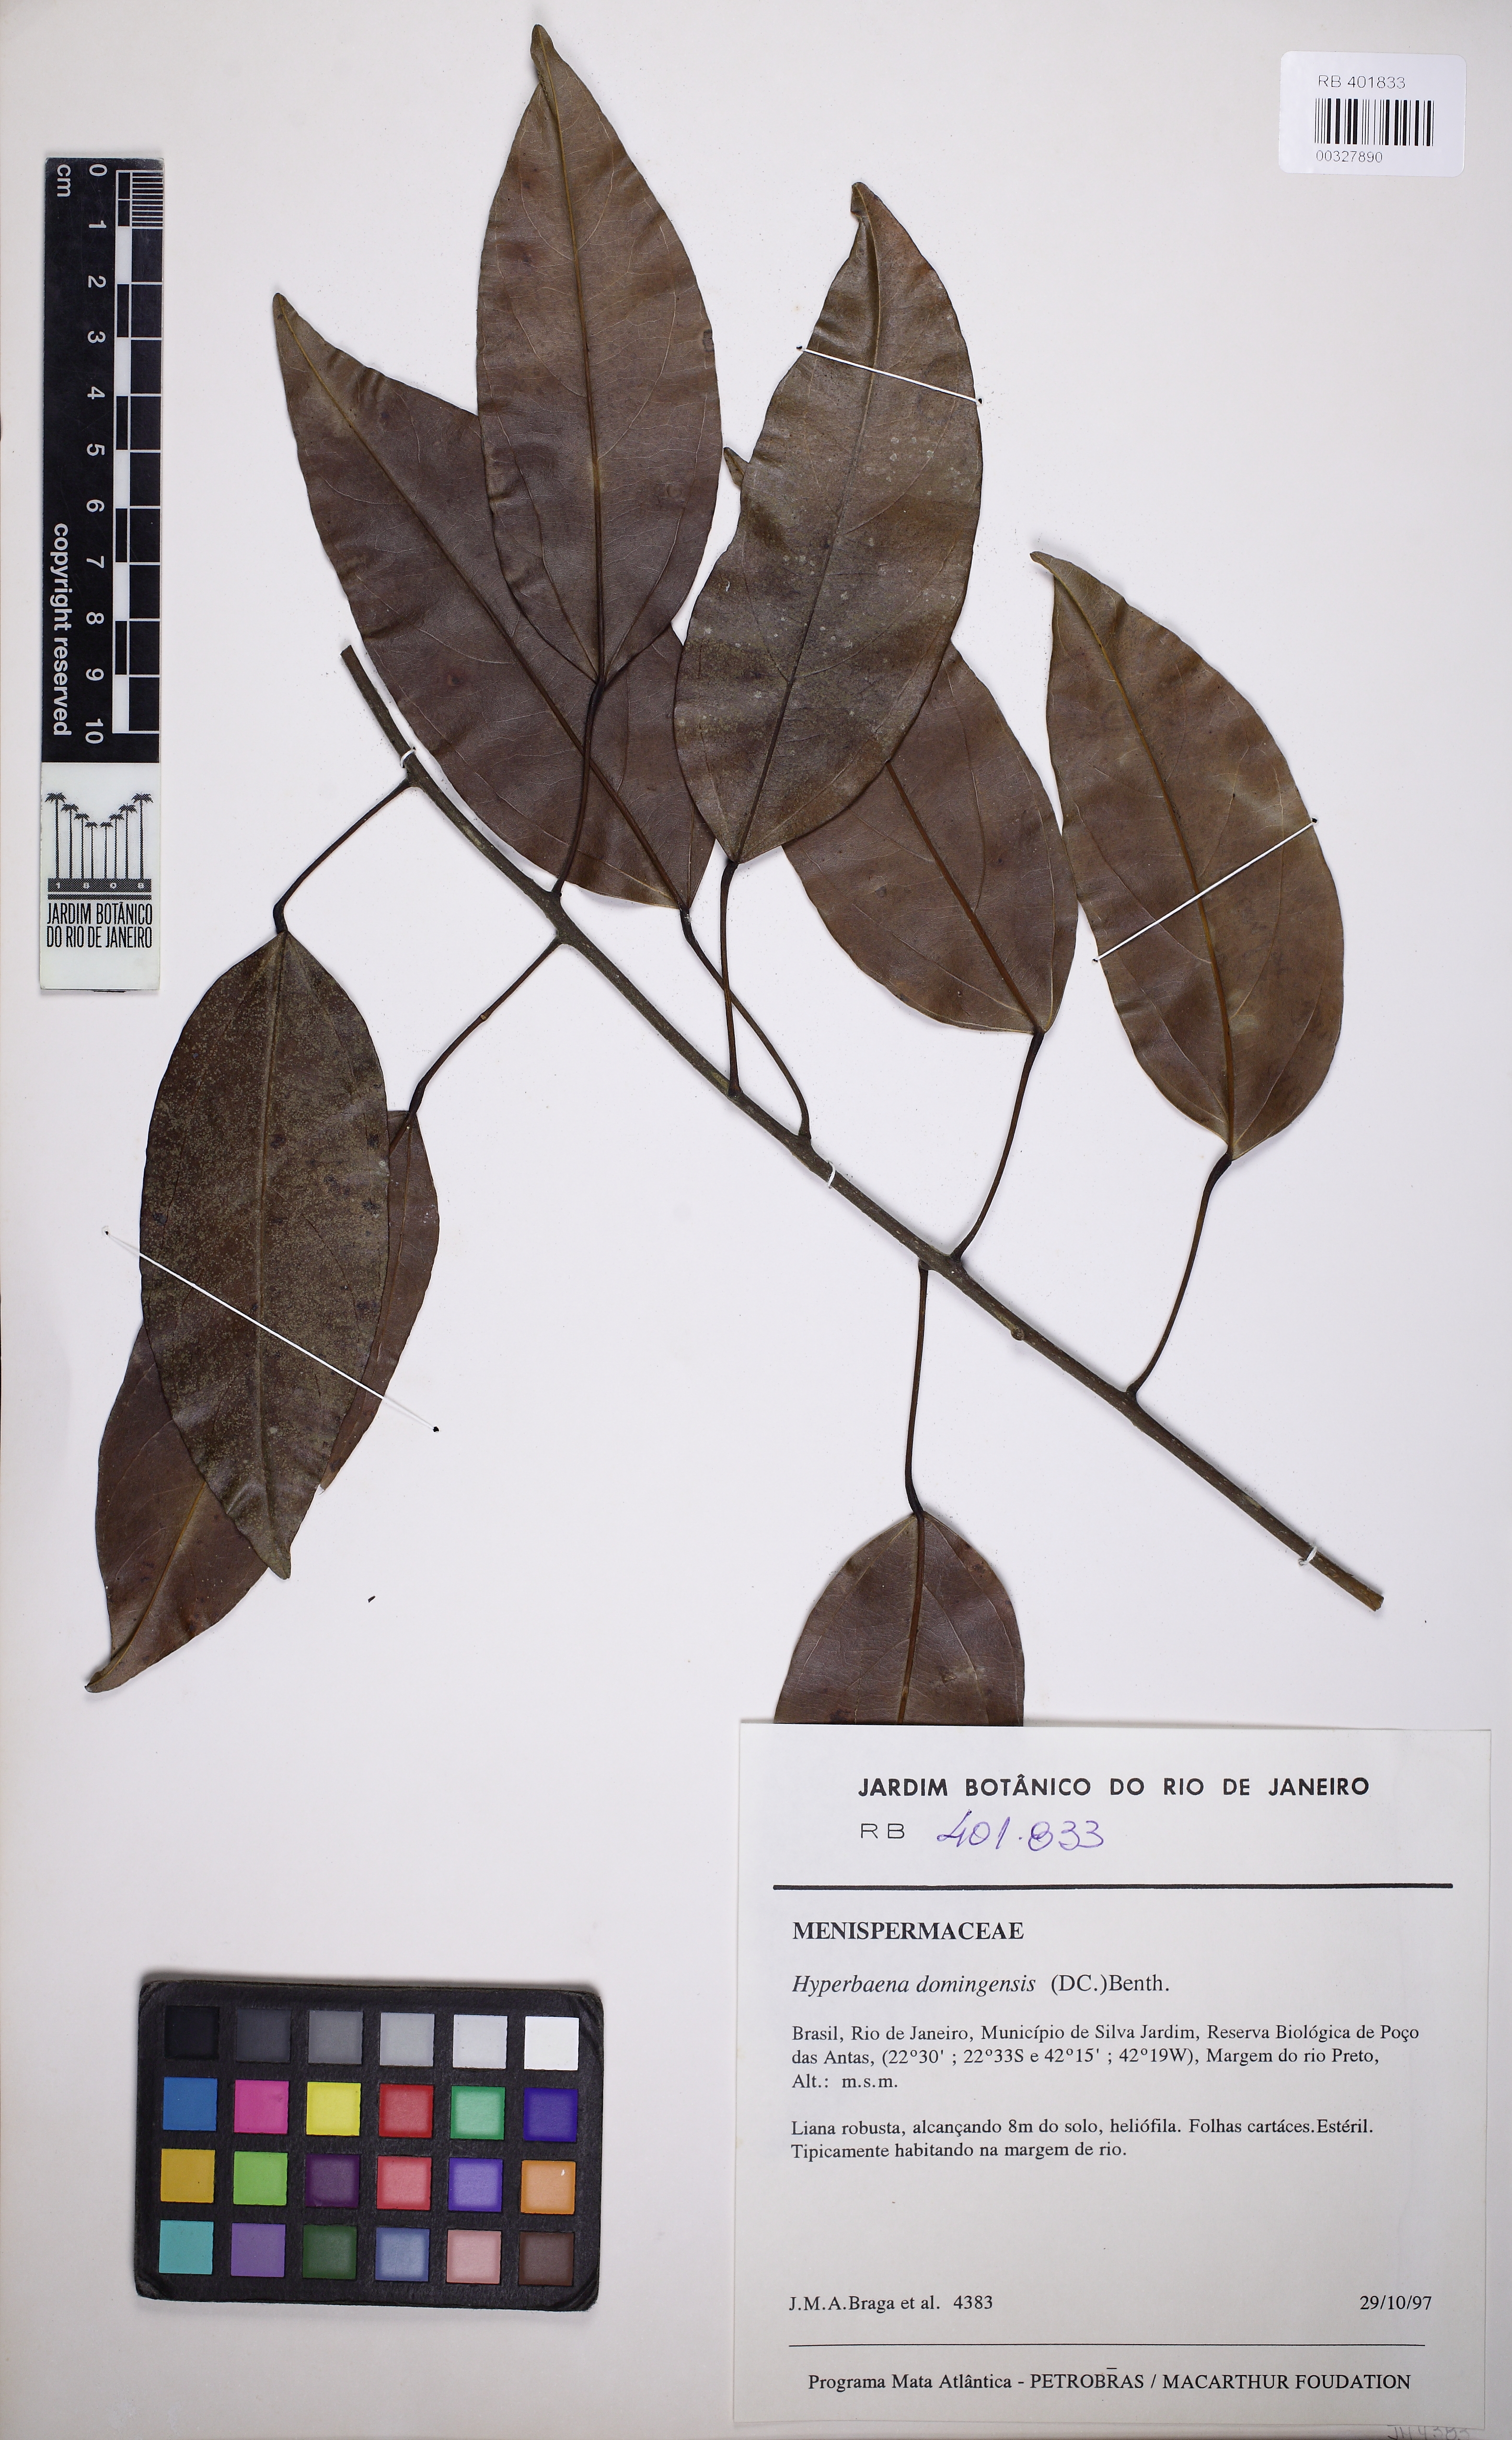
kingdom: Plantae
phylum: Tracheophyta
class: Magnoliopsida
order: Ranunculales
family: Menispermaceae
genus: Hyperbaena
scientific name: Hyperbaena domingensis
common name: Forest snakevine
